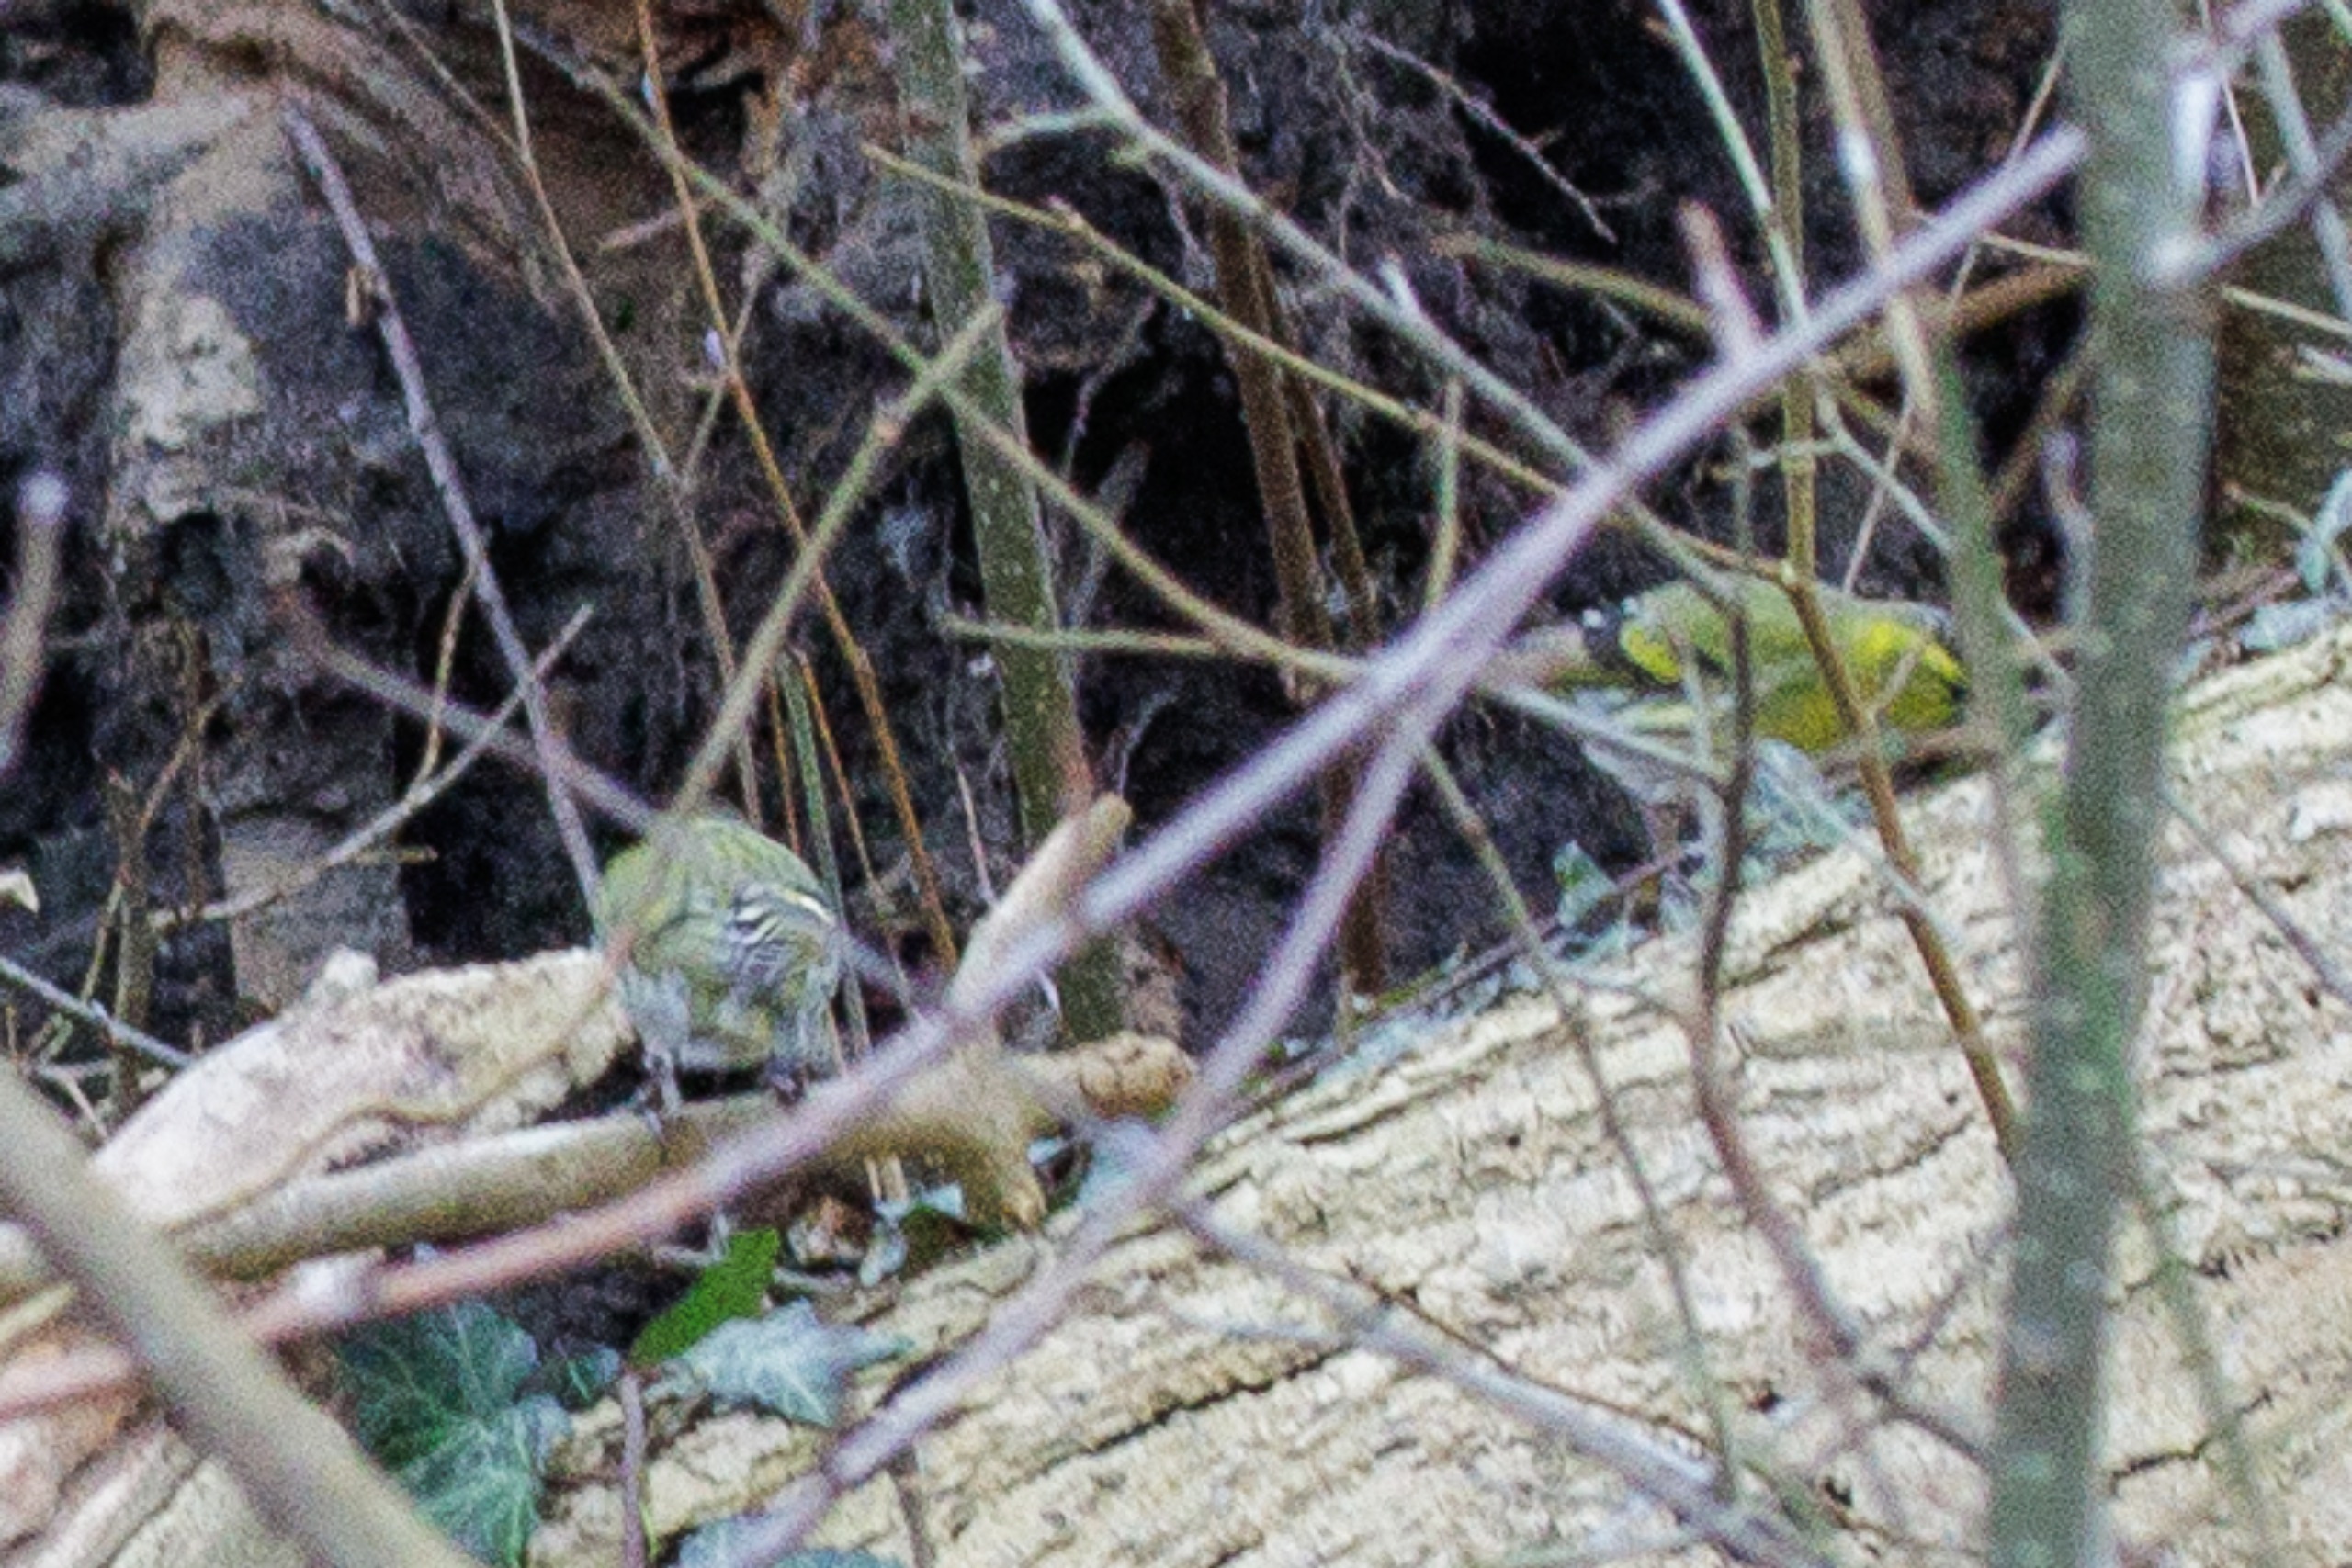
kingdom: Animalia
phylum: Chordata
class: Aves
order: Passeriformes
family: Fringillidae
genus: Spinus
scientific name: Spinus spinus
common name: Grønsisken
